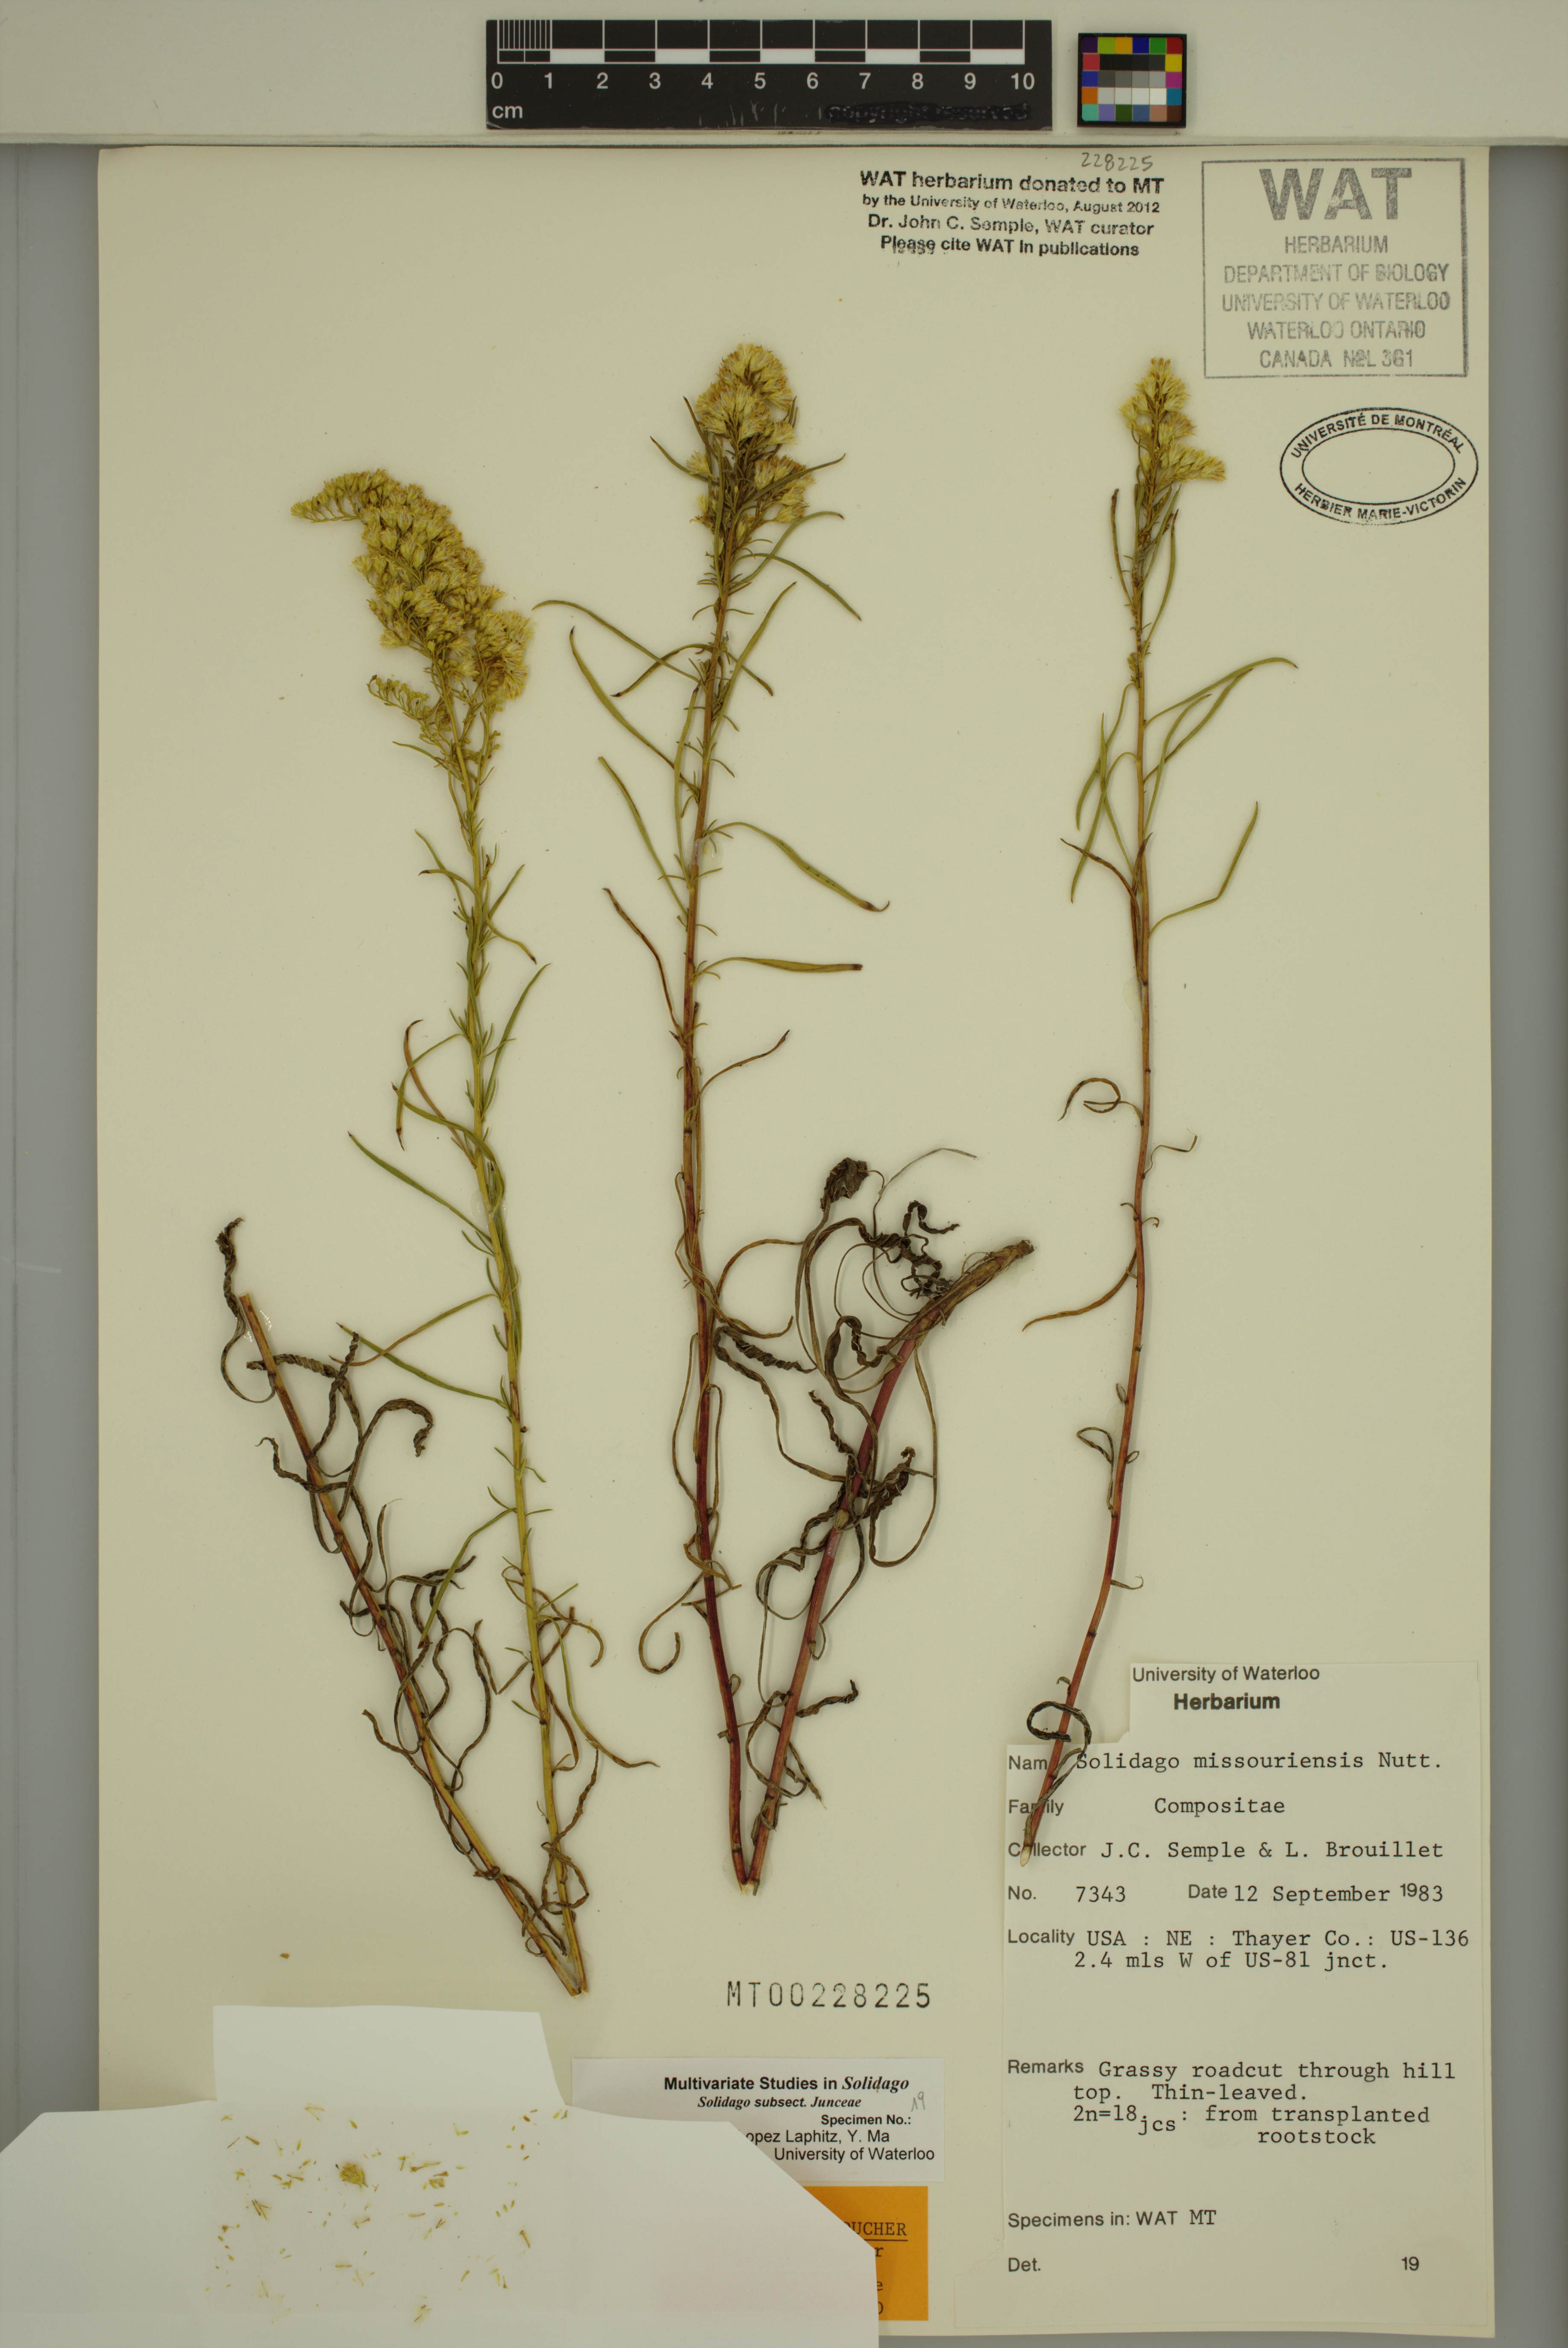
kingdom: Plantae
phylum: Tracheophyta
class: Magnoliopsida
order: Asterales
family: Asteraceae
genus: Solidago
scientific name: Solidago missouriensis
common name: Prairie goldenrod
